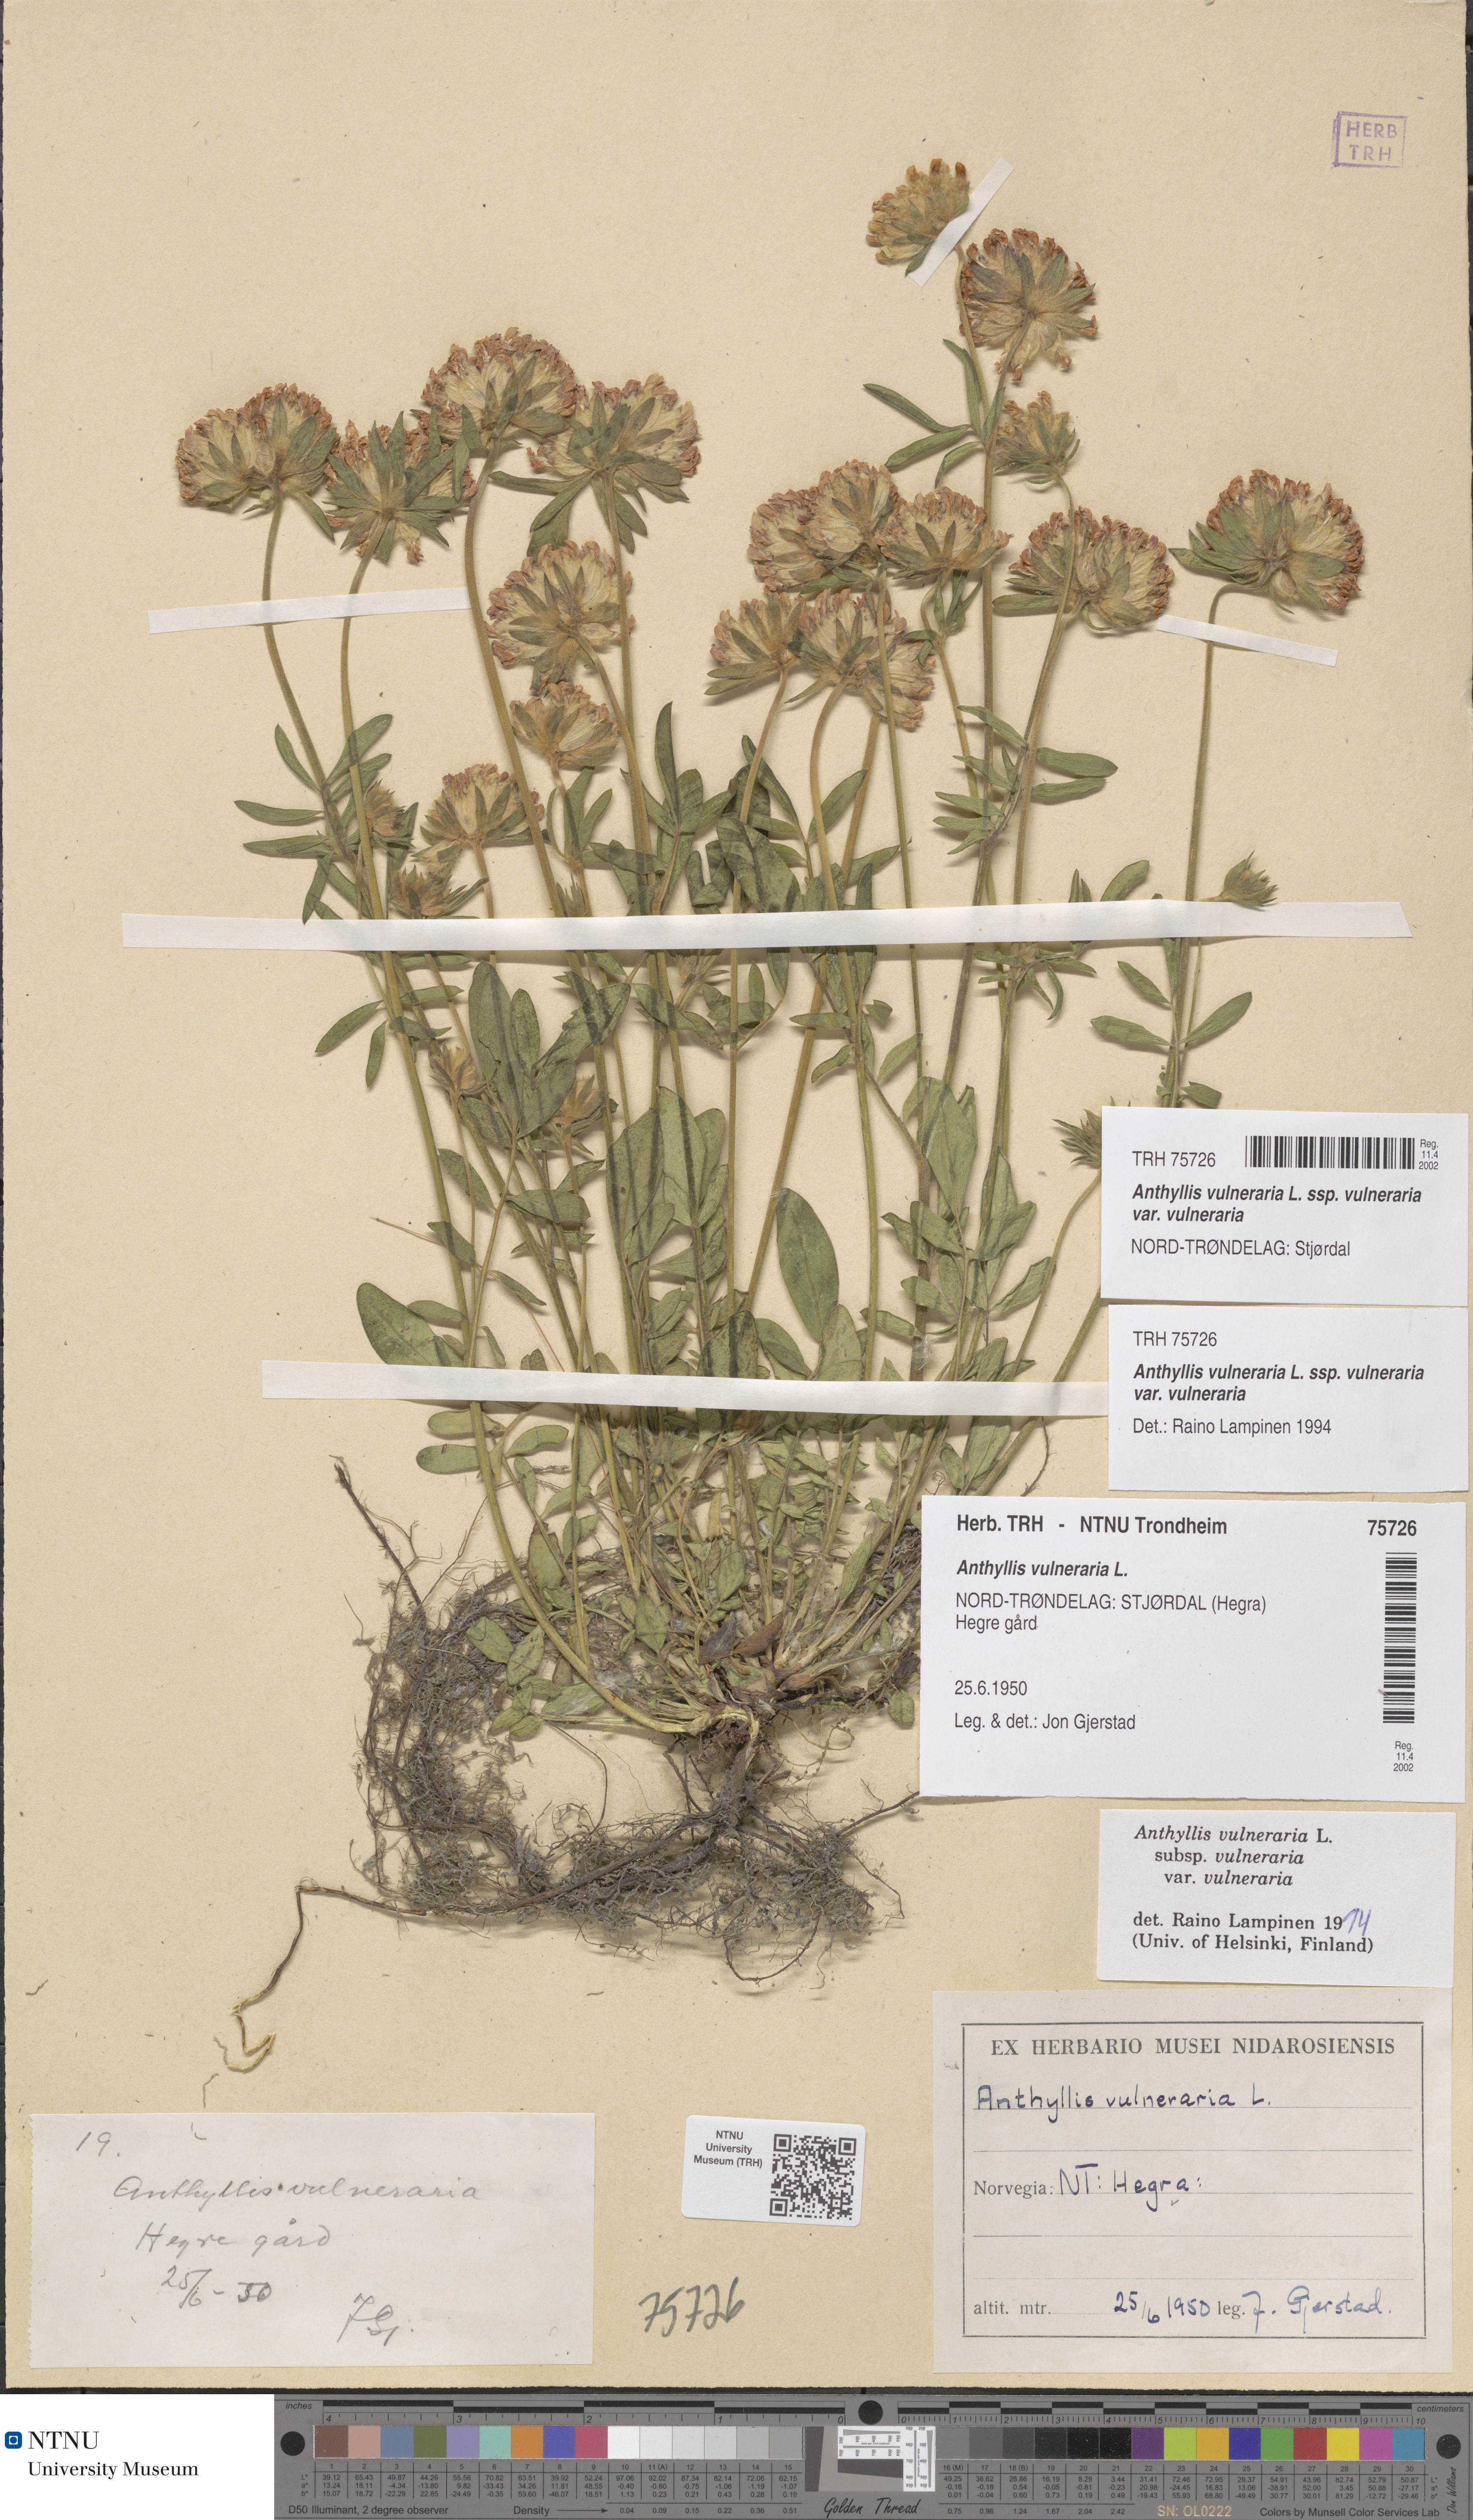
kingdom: Plantae
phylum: Tracheophyta
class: Magnoliopsida
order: Fabales
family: Fabaceae
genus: Anthyllis
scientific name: Anthyllis vulneraria
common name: Kidney vetch
